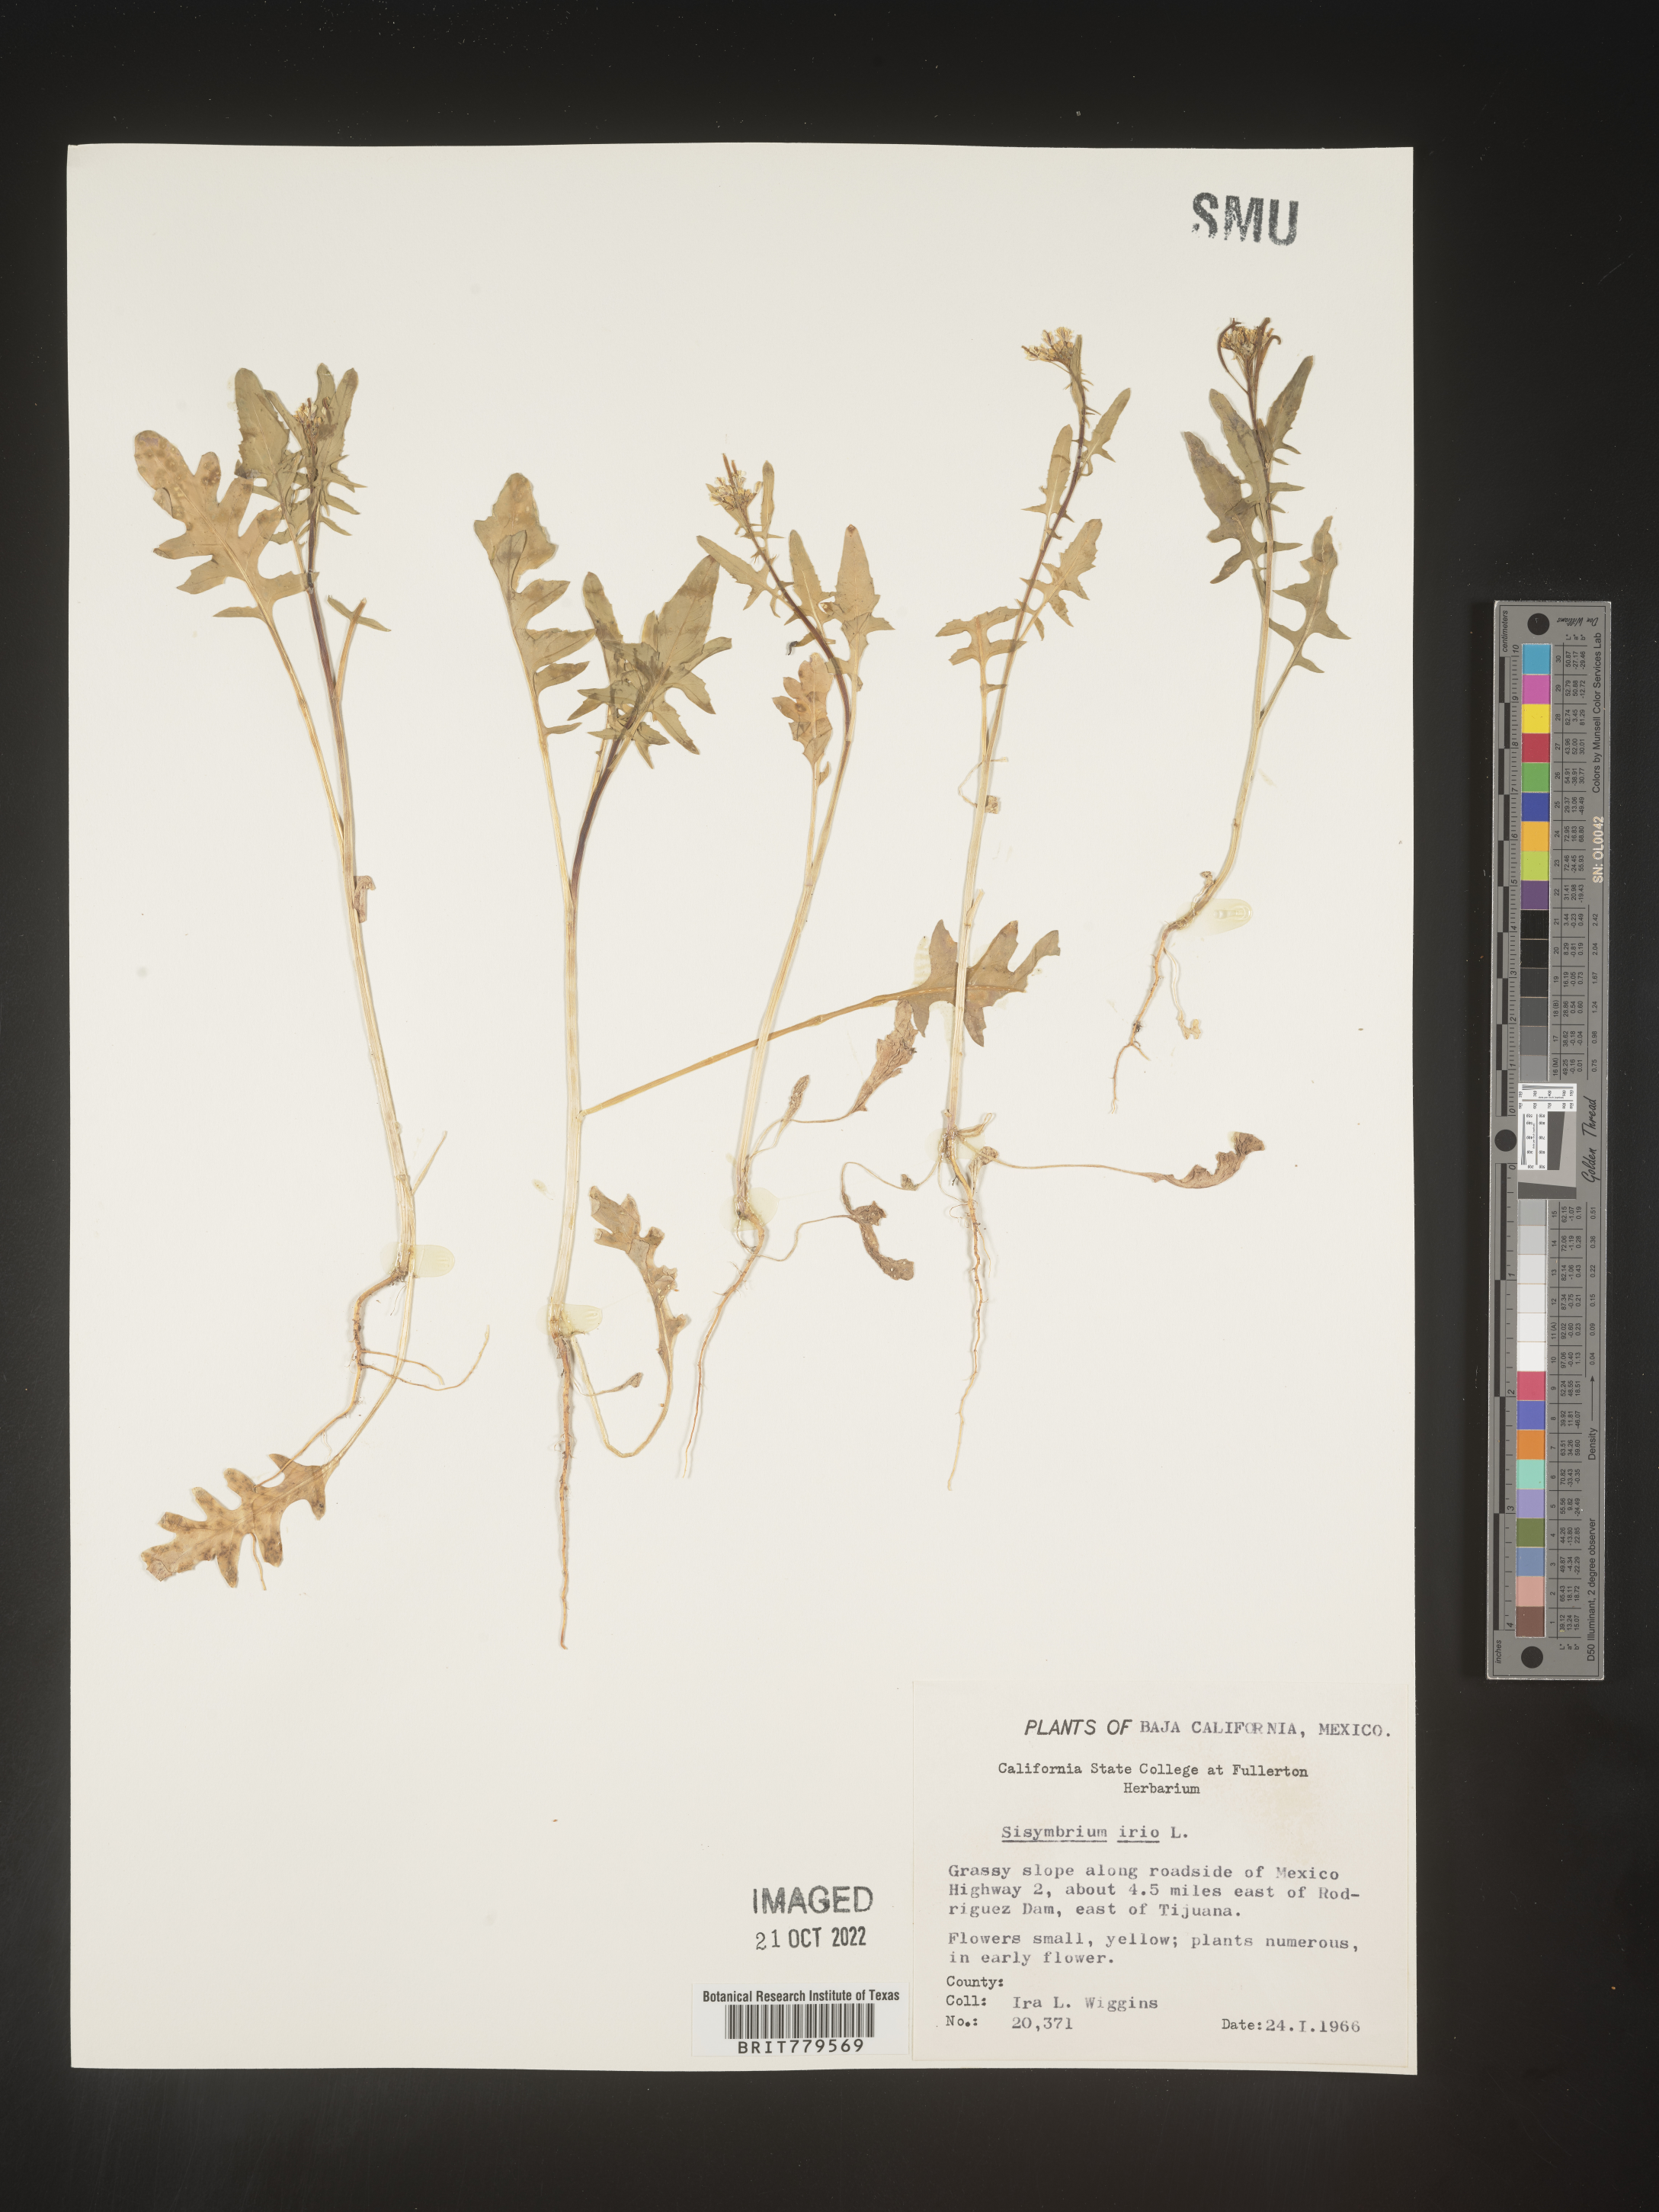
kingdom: Plantae
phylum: Tracheophyta
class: Magnoliopsida
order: Brassicales
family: Brassicaceae
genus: Sisymbrium
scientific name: Sisymbrium
